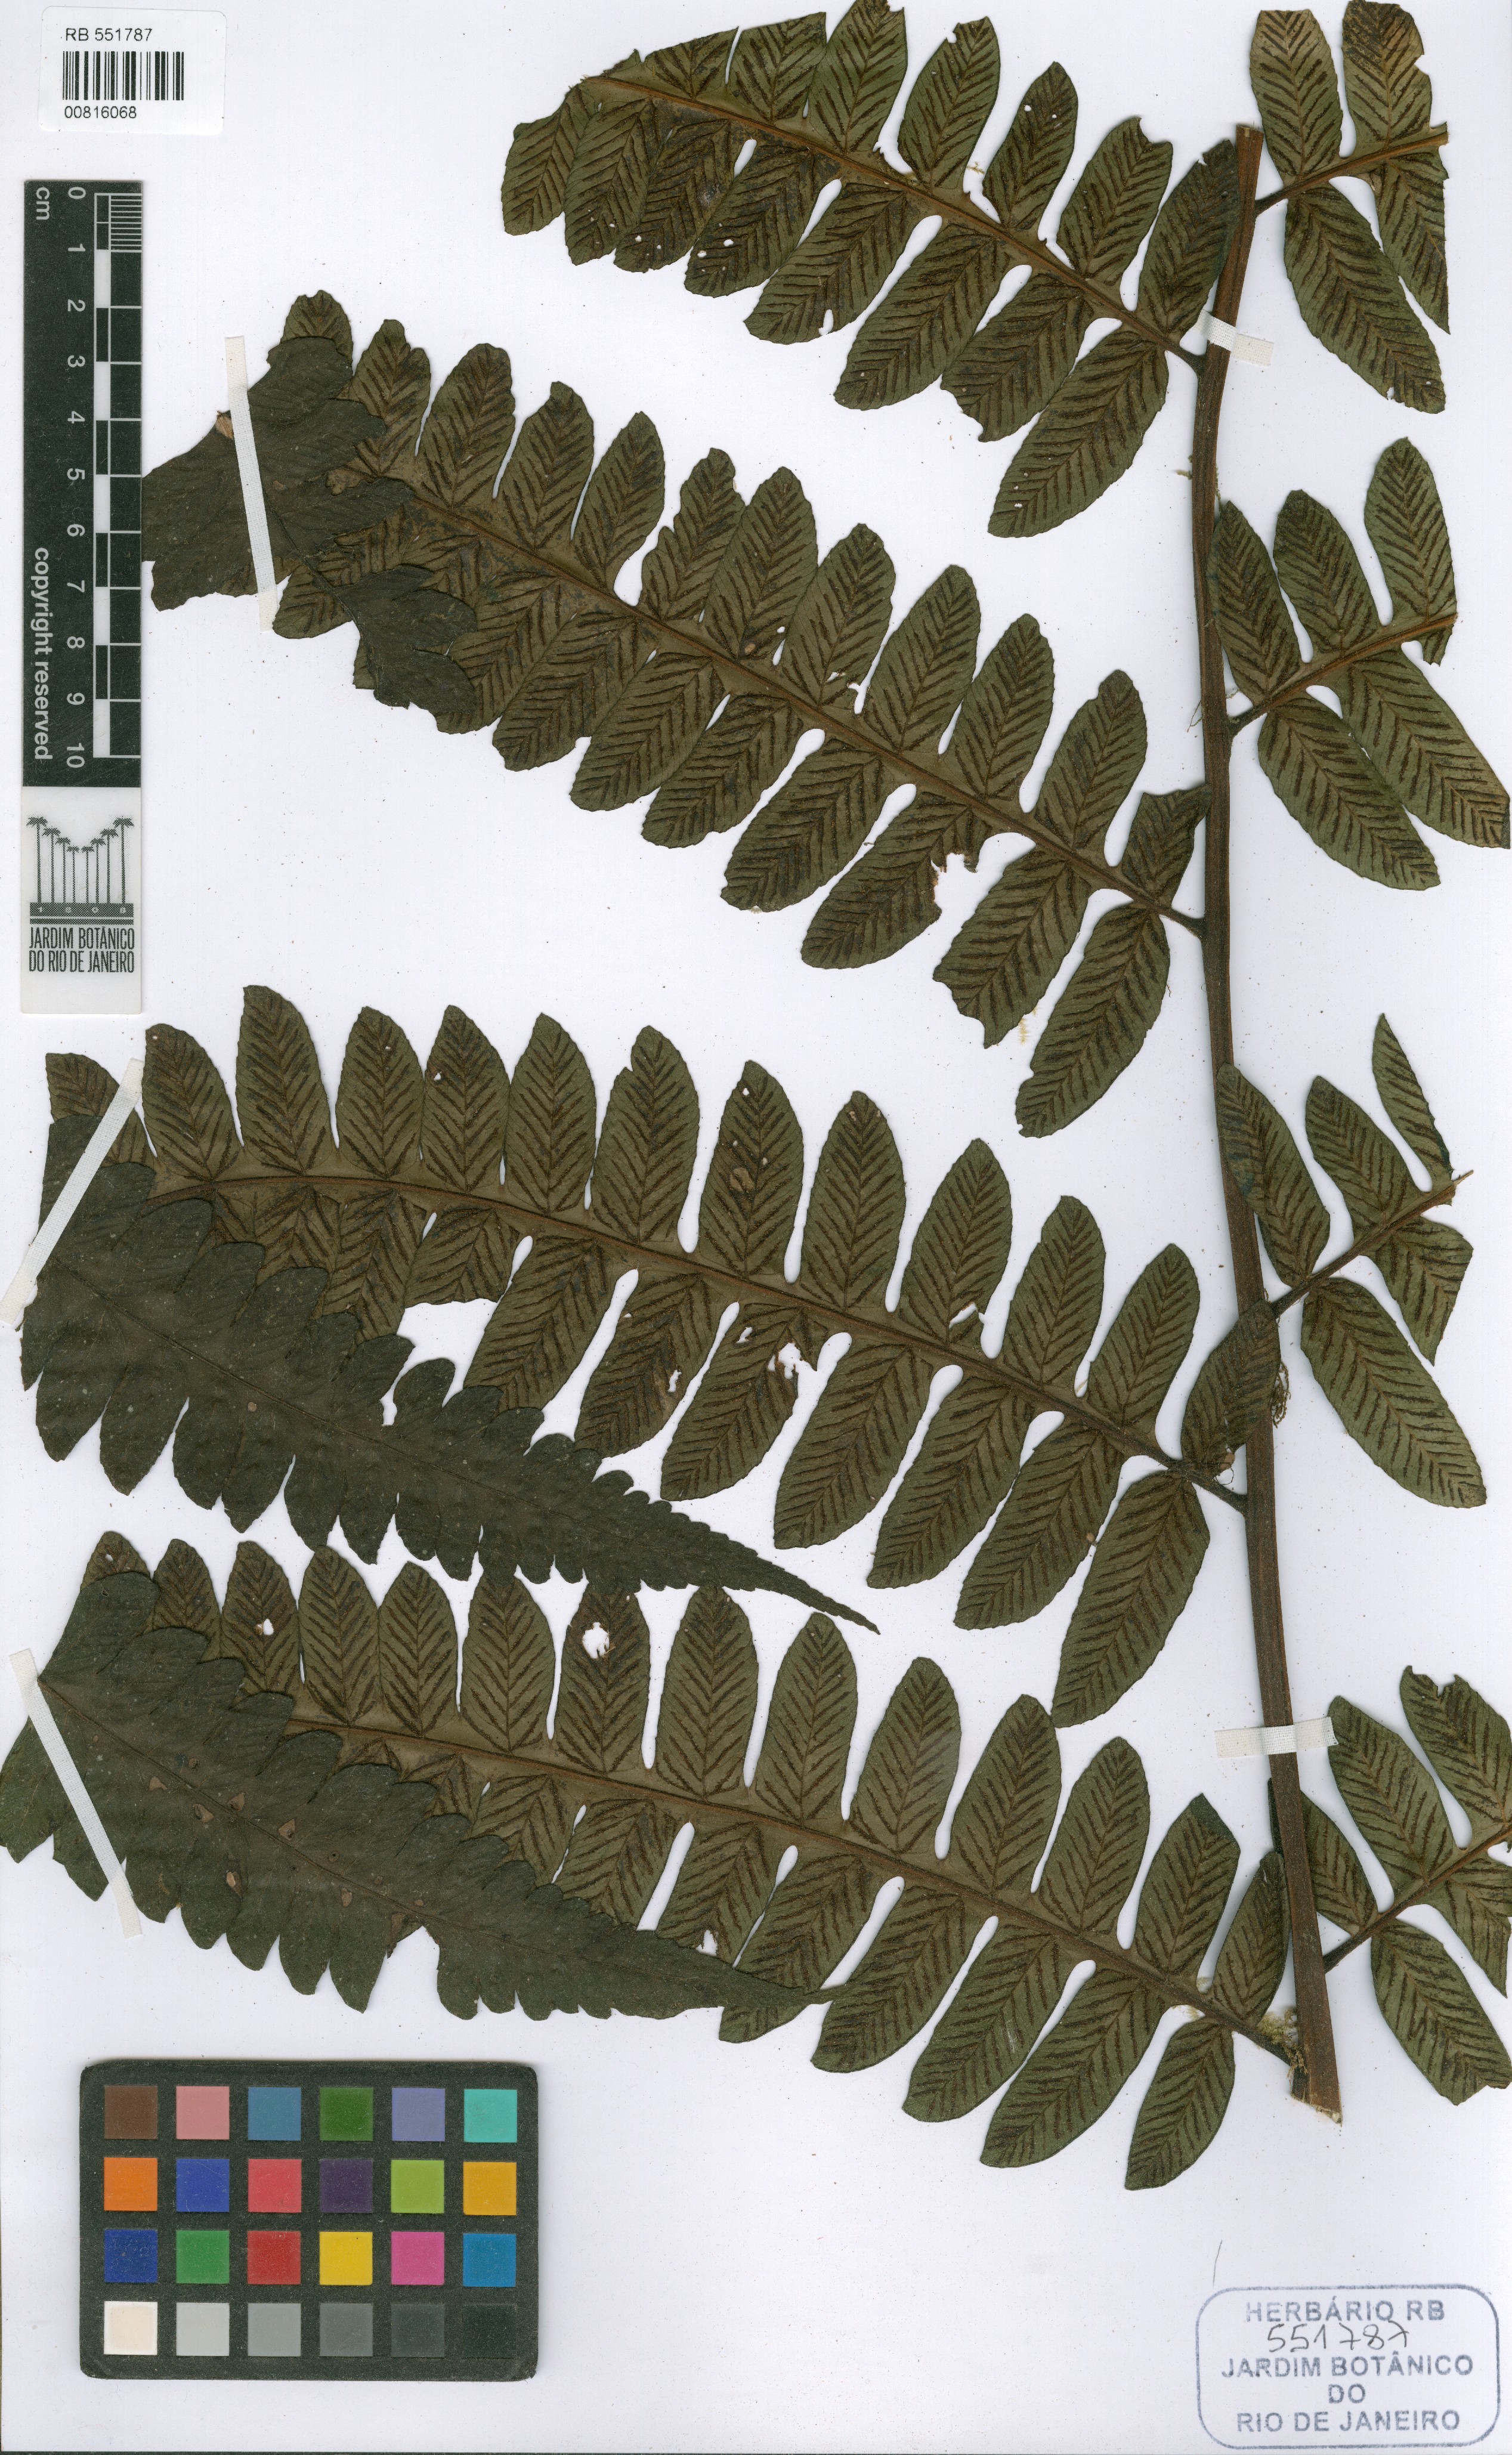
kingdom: Plantae
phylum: Tracheophyta
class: Polypodiopsida
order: Polypodiales
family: Athyriaceae
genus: Diplazium
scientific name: Diplazium fimbriatum
